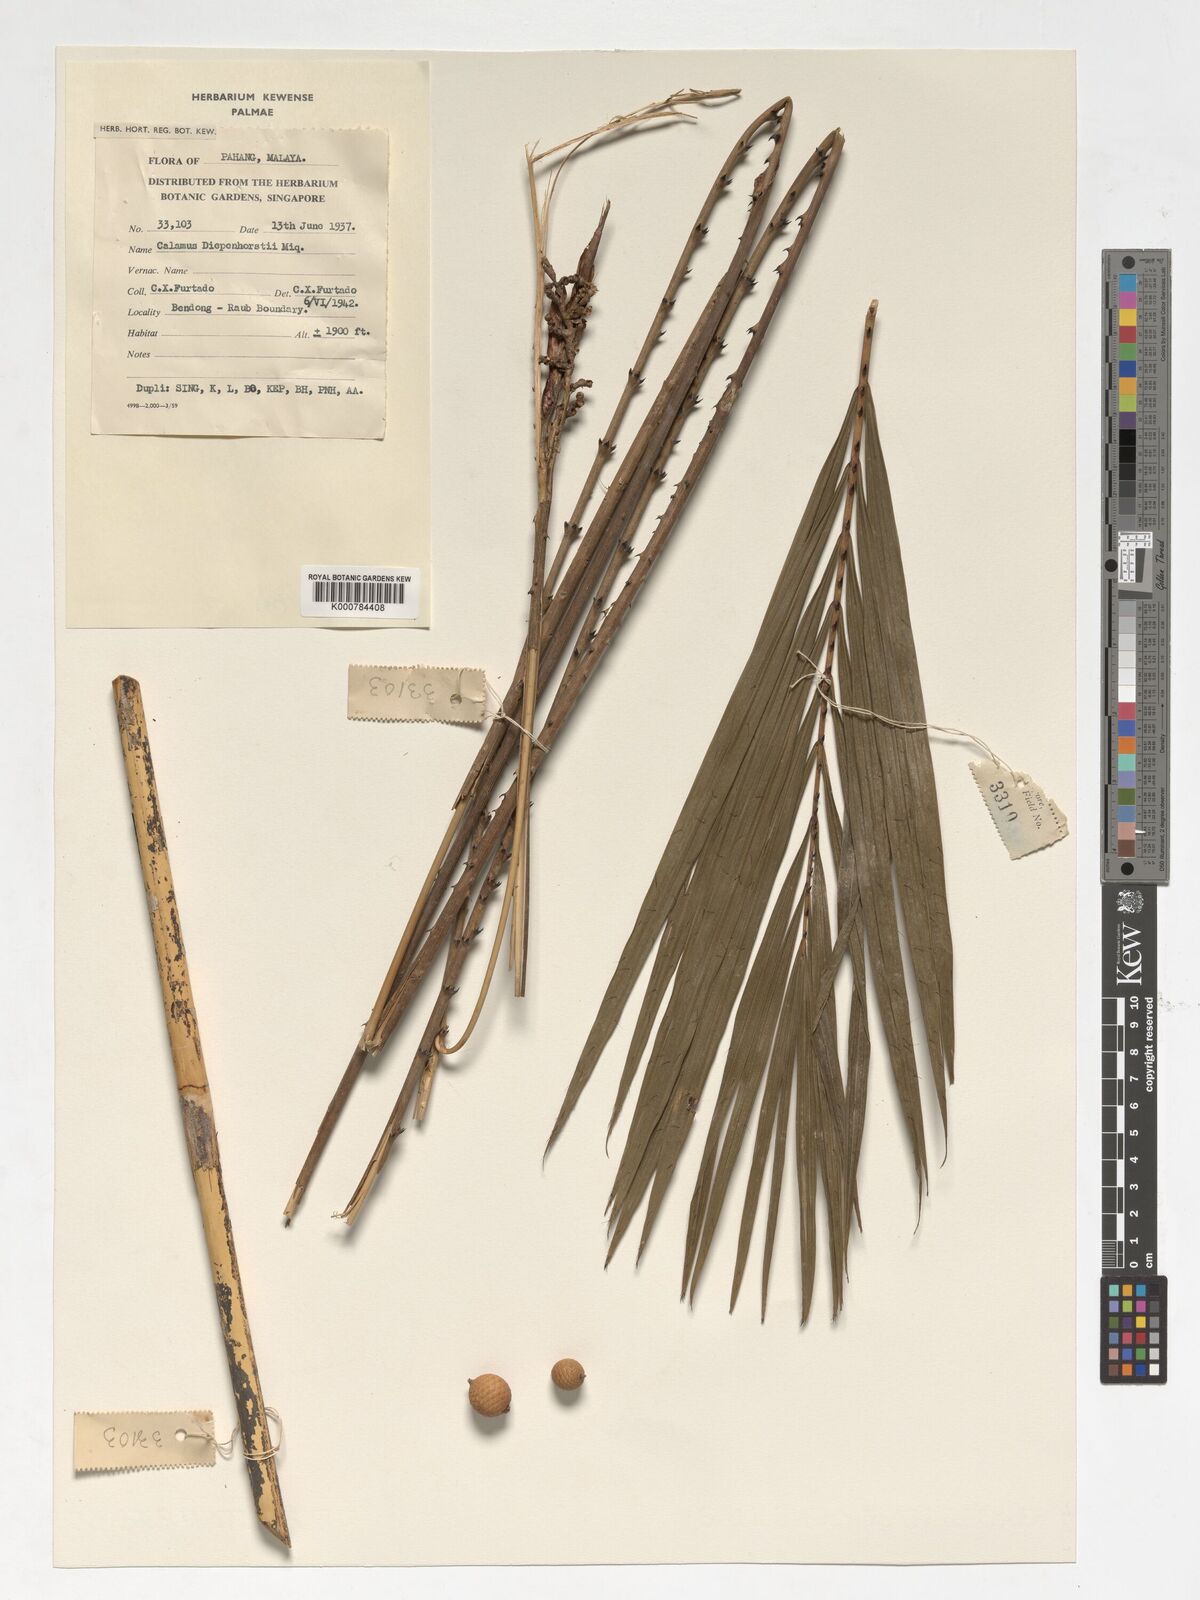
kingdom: Plantae
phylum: Tracheophyta
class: Liliopsida
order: Arecales
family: Arecaceae
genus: Calamus
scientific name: Calamus diepenhorstii
